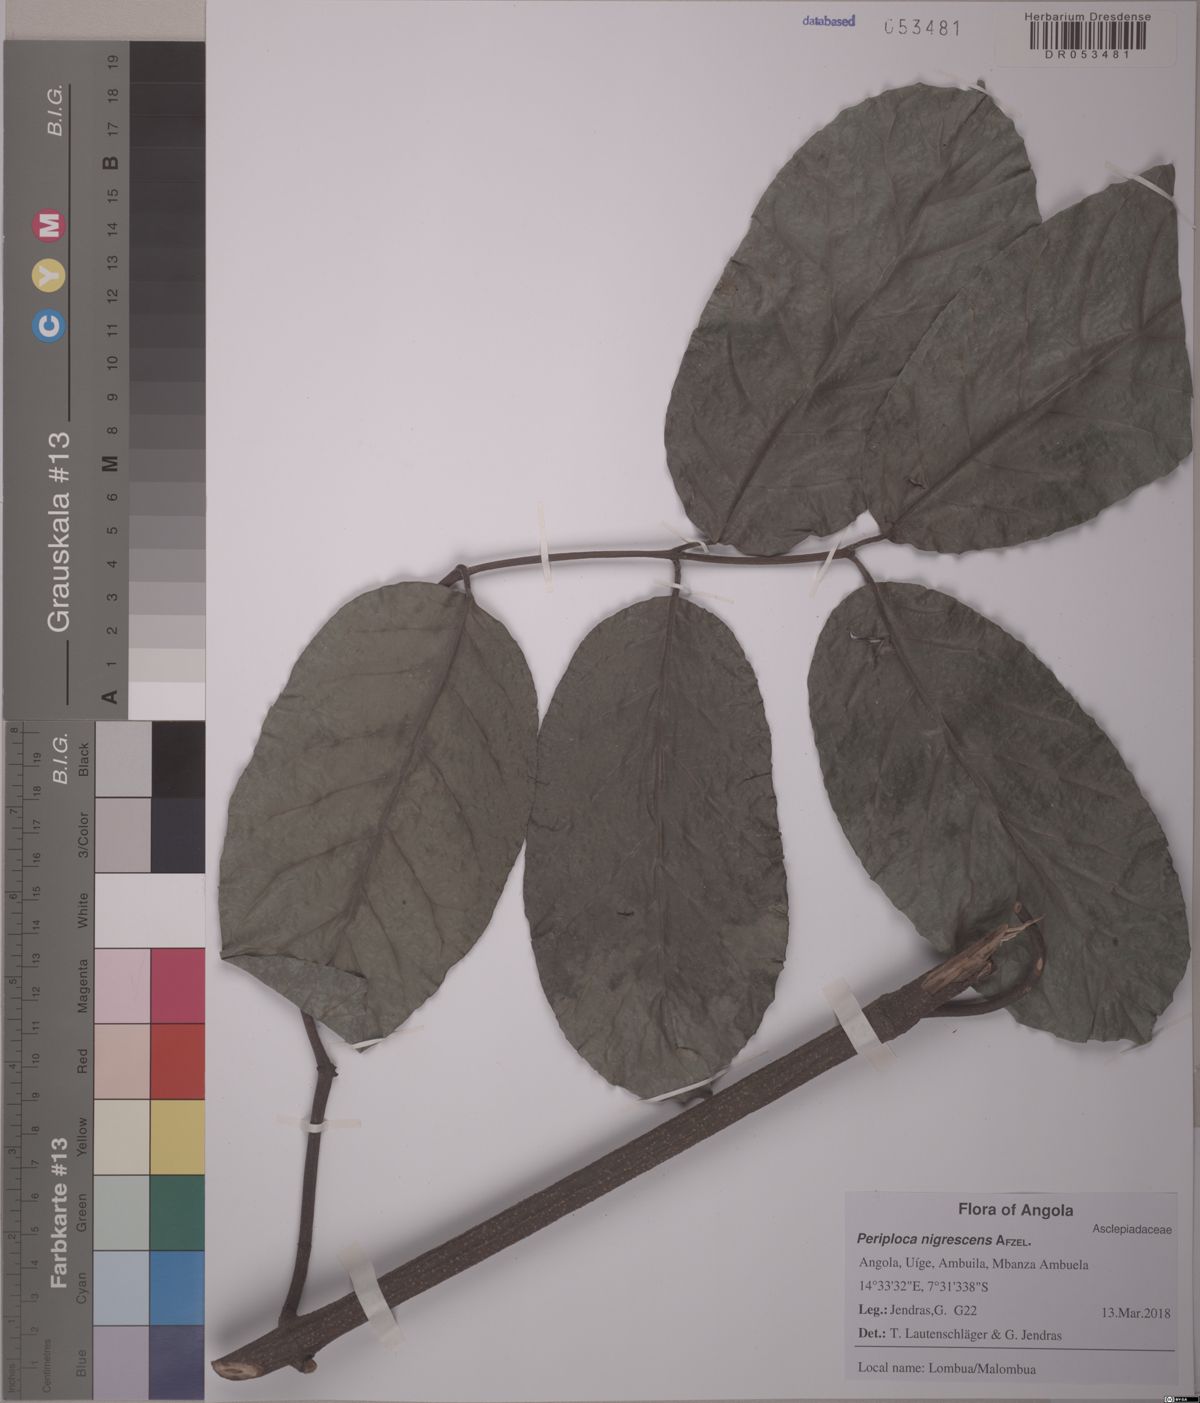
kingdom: Plantae
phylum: Tracheophyta
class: Magnoliopsida
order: Gentianales
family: Apocynaceae
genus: Cryptolepis
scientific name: Cryptolepis nigrescens
